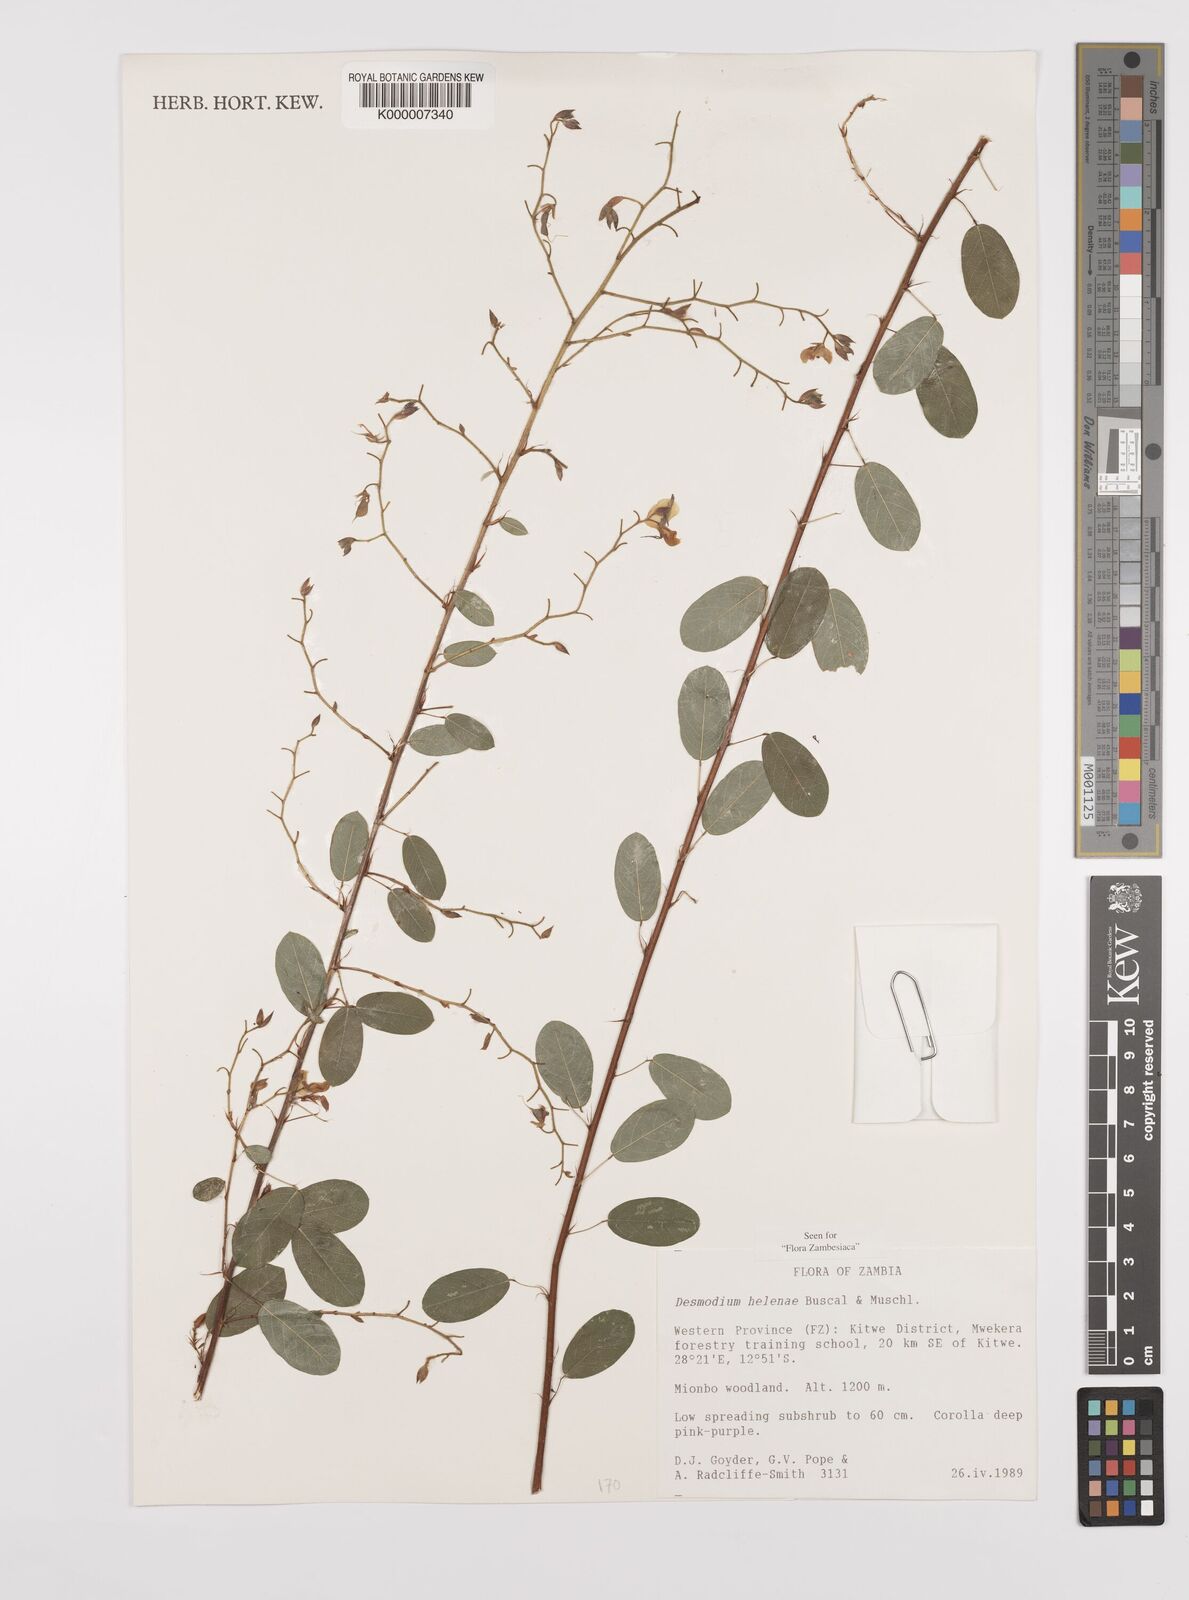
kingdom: Plantae
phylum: Tracheophyta
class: Magnoliopsida
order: Fabales
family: Fabaceae
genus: Grona
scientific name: Grona helenae
